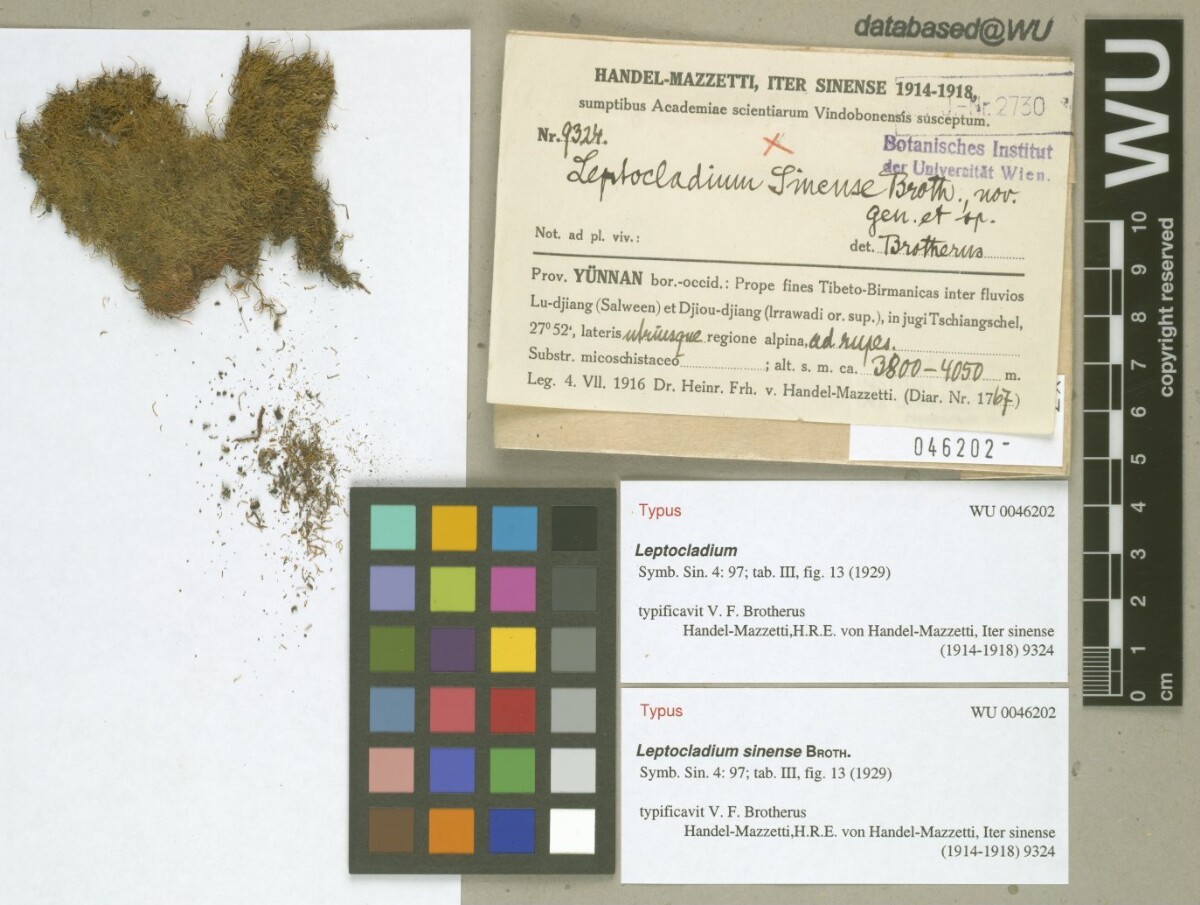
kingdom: Plantae
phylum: Bryophyta
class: Bryopsida
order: Hypnales
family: Leskeaceae
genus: Leptocladium
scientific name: Leptocladium sinense
